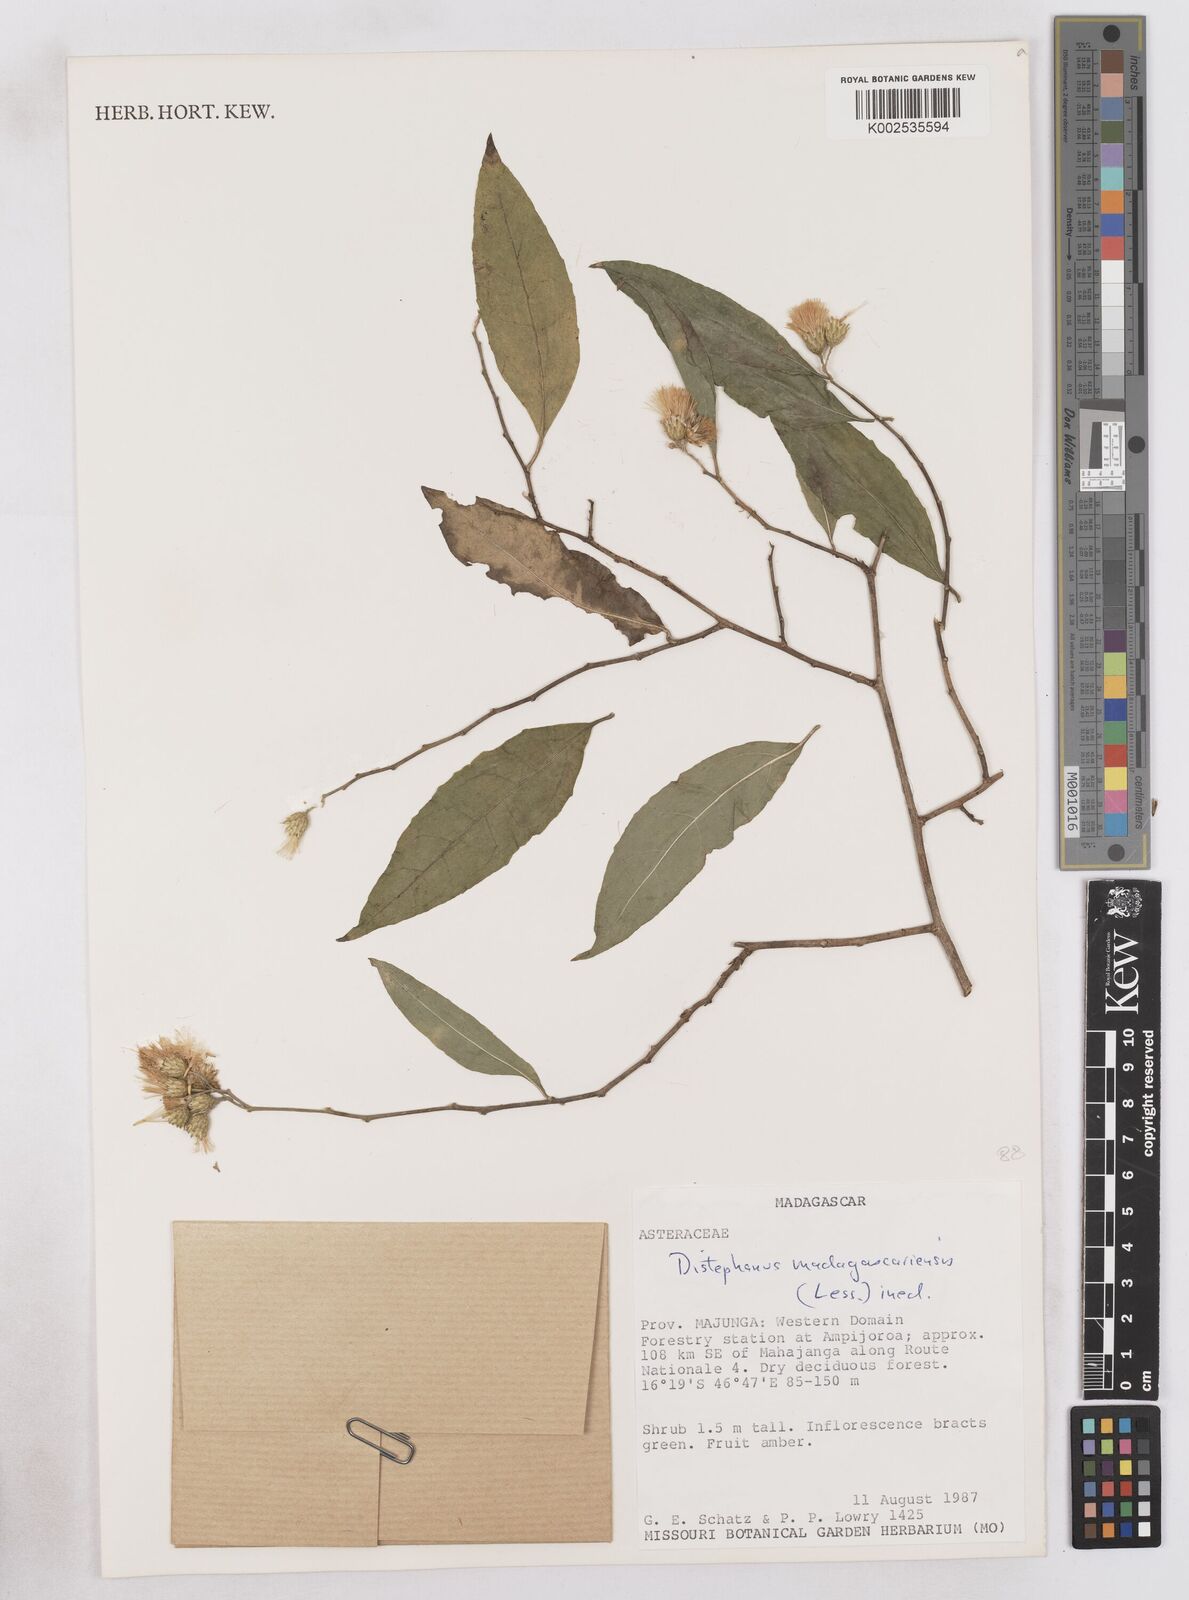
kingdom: Plantae
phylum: Tracheophyta
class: Magnoliopsida
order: Asterales
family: Asteraceae
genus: Distephanus
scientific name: Distephanus madagascariensis
